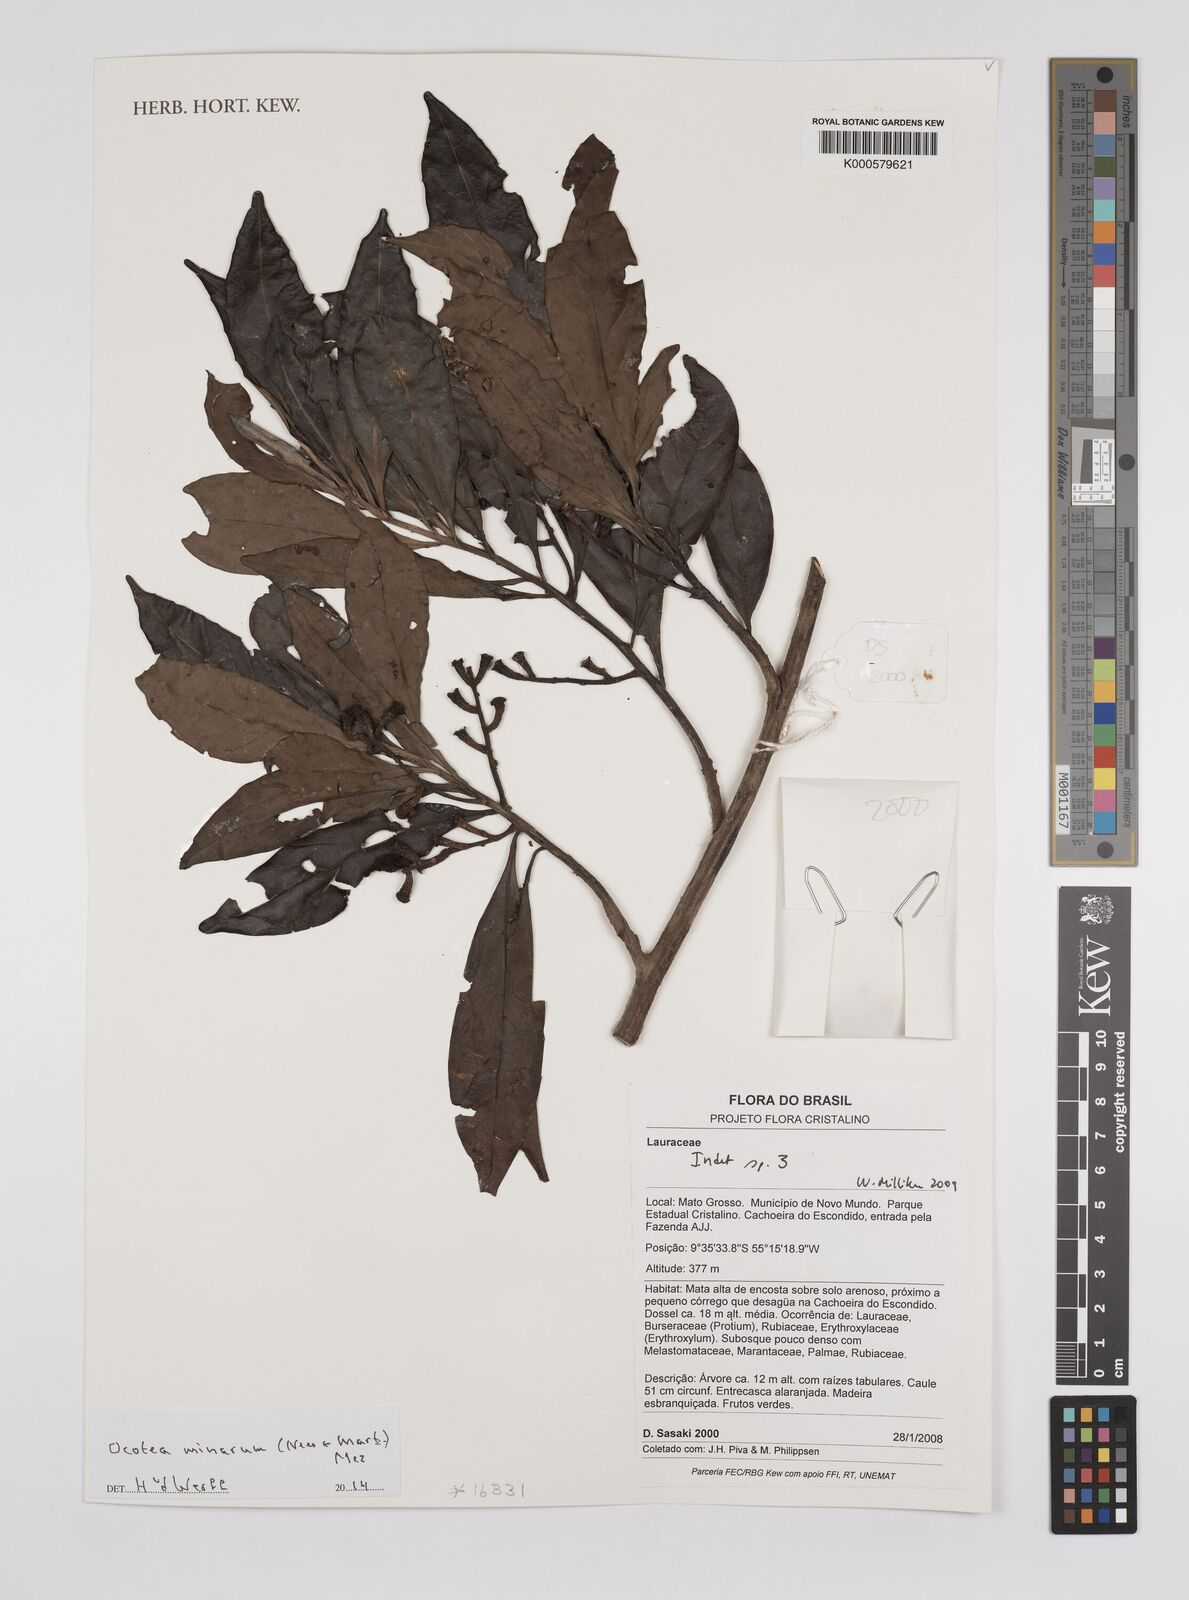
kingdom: Plantae
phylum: Tracheophyta
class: Magnoliopsida
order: Laurales
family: Lauraceae
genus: Ocotea
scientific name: Ocotea minarum
